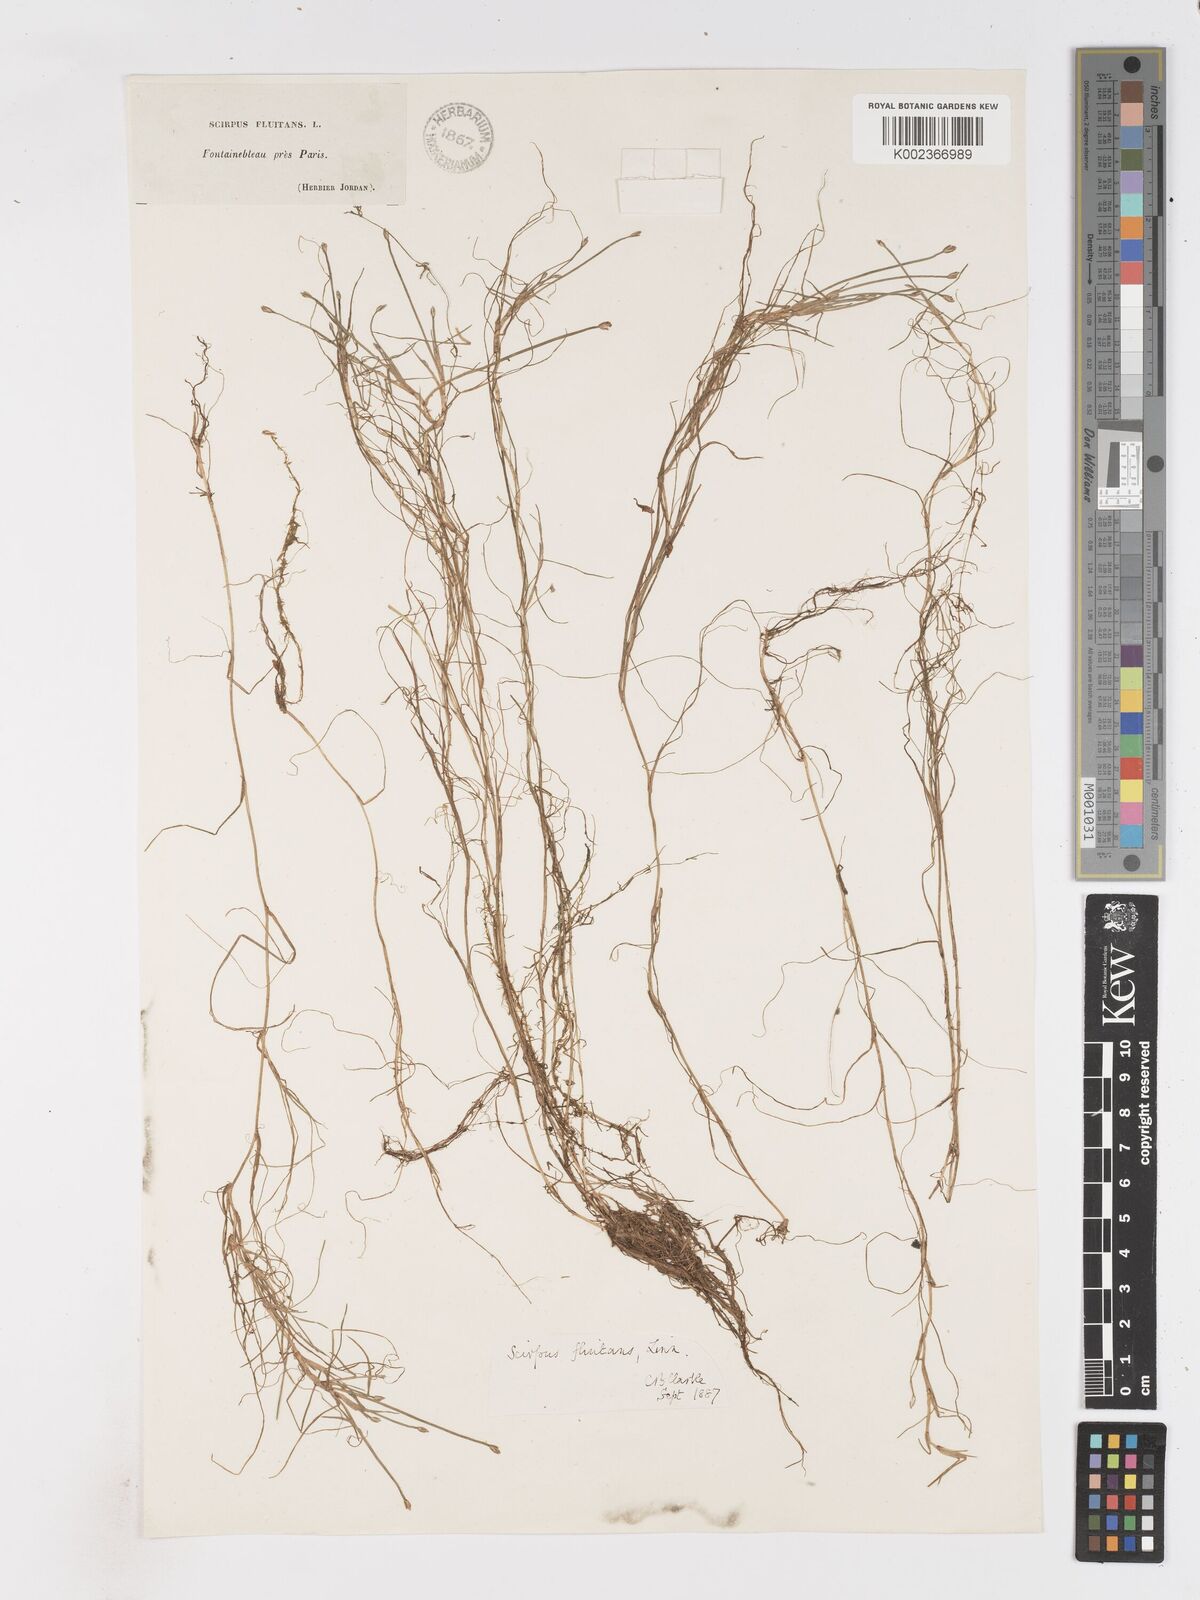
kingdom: Plantae
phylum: Tracheophyta
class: Liliopsida
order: Poales
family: Cyperaceae
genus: Isolepis
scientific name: Isolepis fluitans
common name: Floating club-rush
